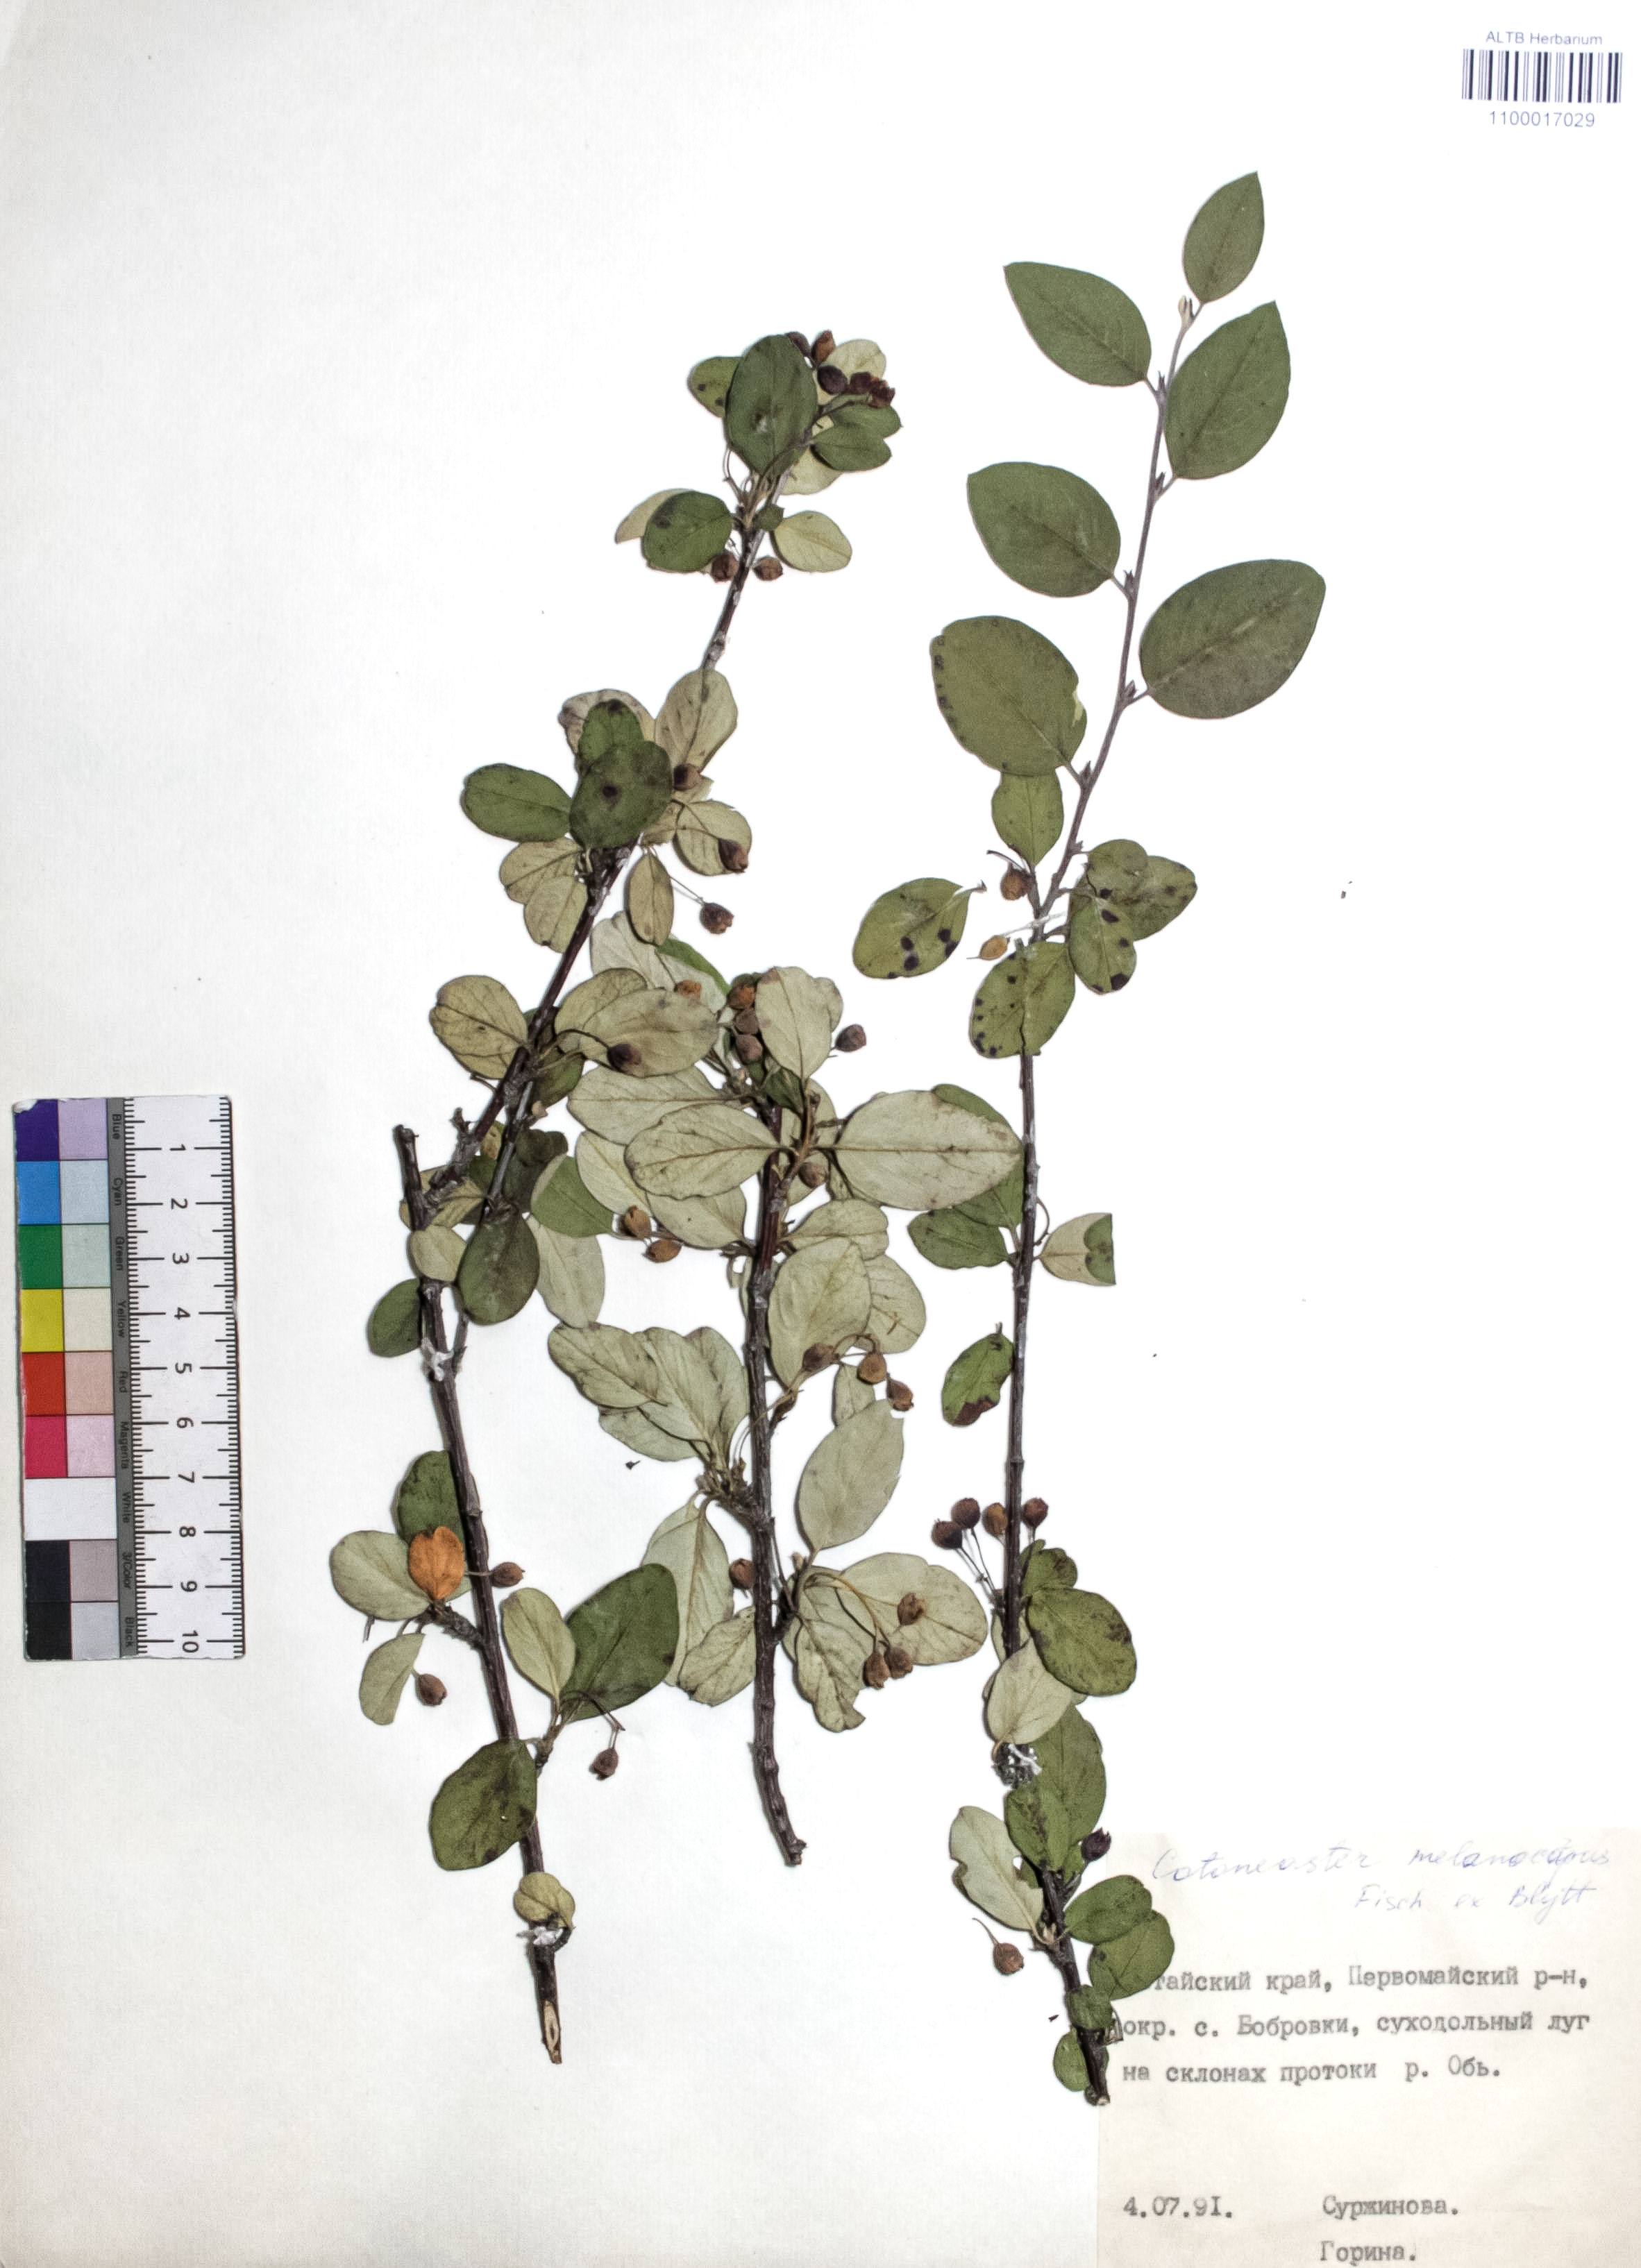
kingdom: Plantae
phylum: Tracheophyta
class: Magnoliopsida
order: Rosales
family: Rosaceae
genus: Cotoneaster
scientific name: Cotoneaster niger
